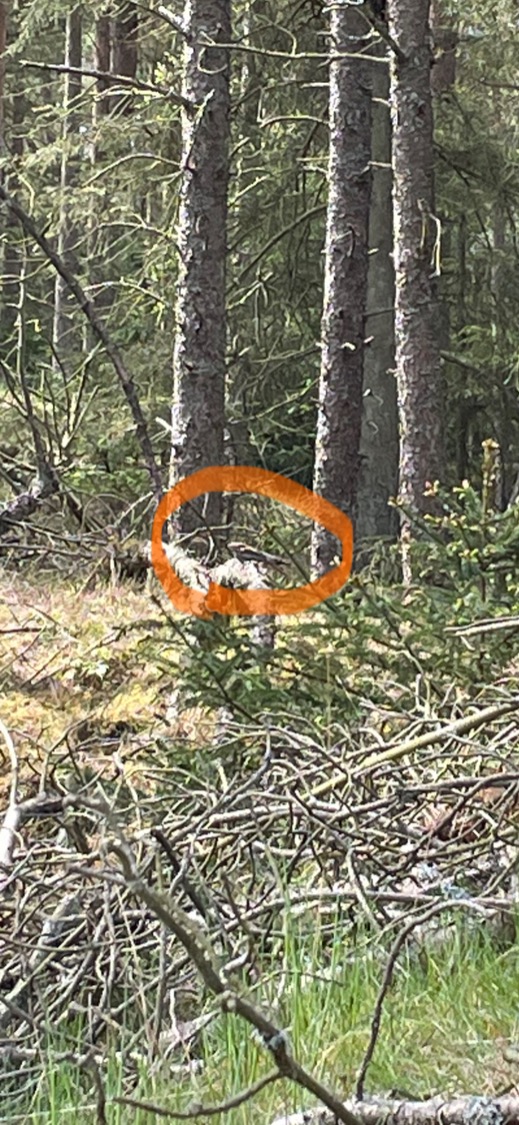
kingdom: Animalia
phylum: Chordata
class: Aves
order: Caprimulgiformes
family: Caprimulgidae
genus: Caprimulgus
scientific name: Caprimulgus europaeus
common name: Natravn
